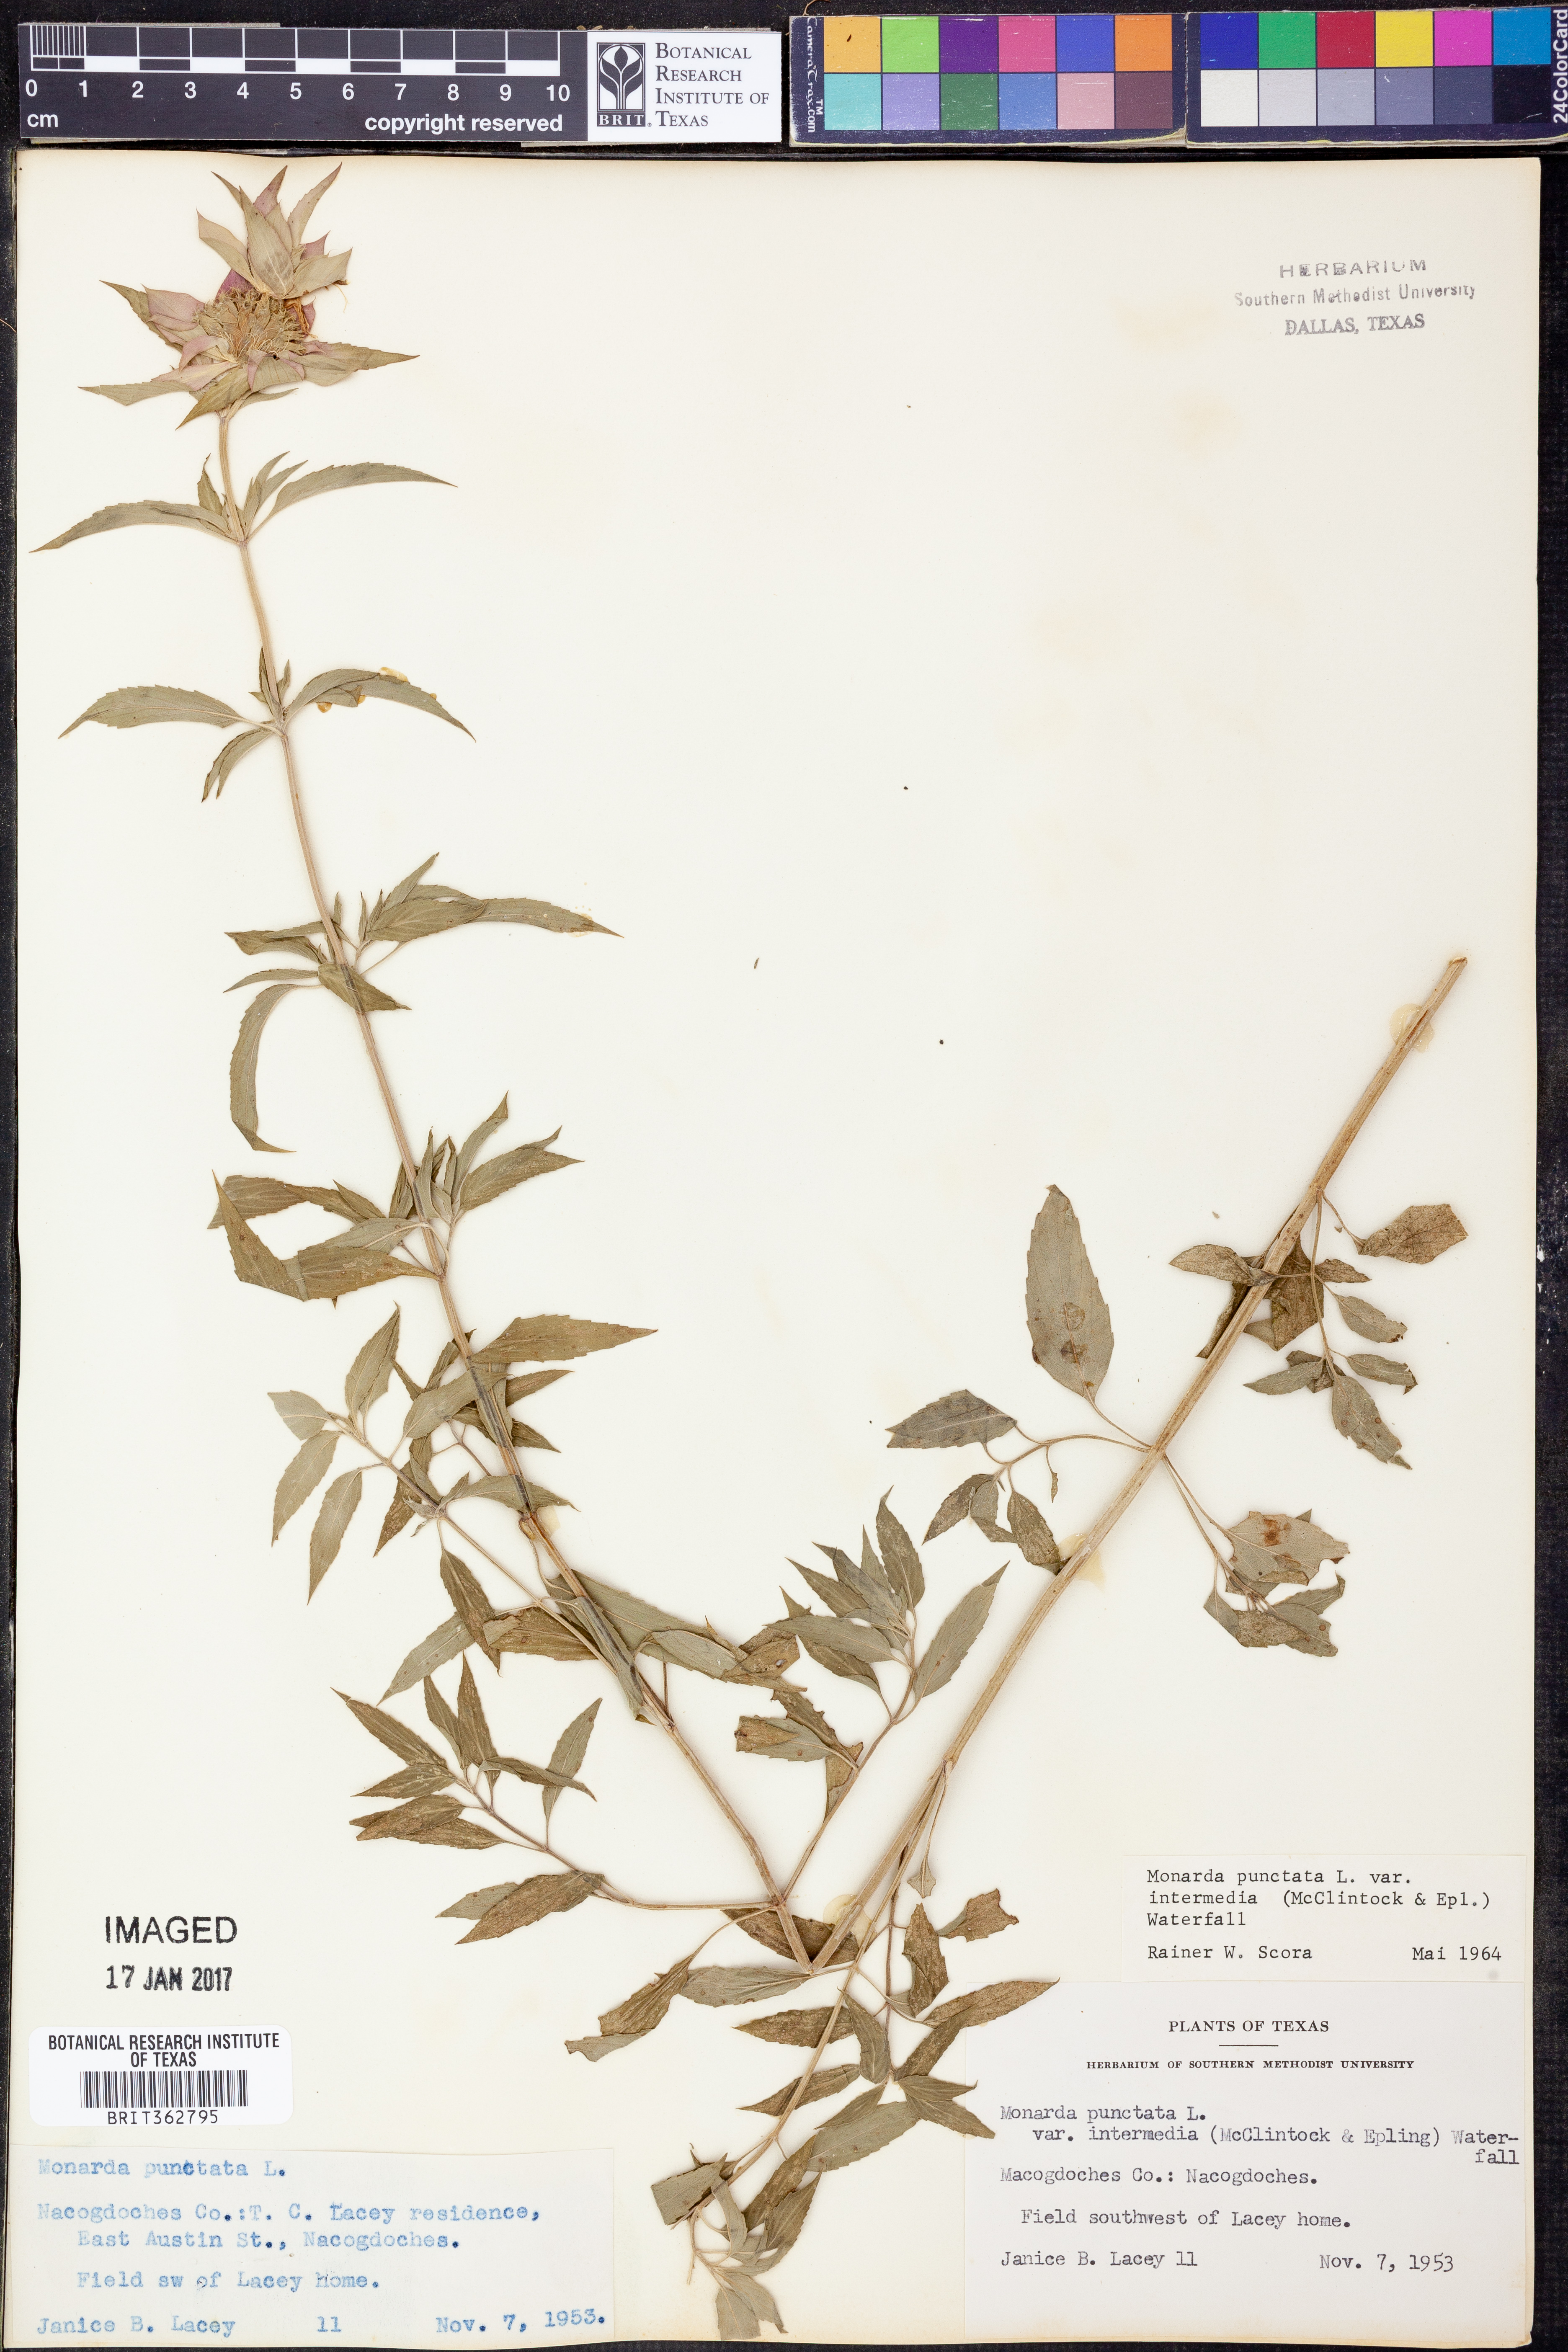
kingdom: Plantae
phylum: Tracheophyta
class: Magnoliopsida
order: Lamiales
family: Lamiaceae
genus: Monarda
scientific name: Monarda punctata
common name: Dotted monarda
